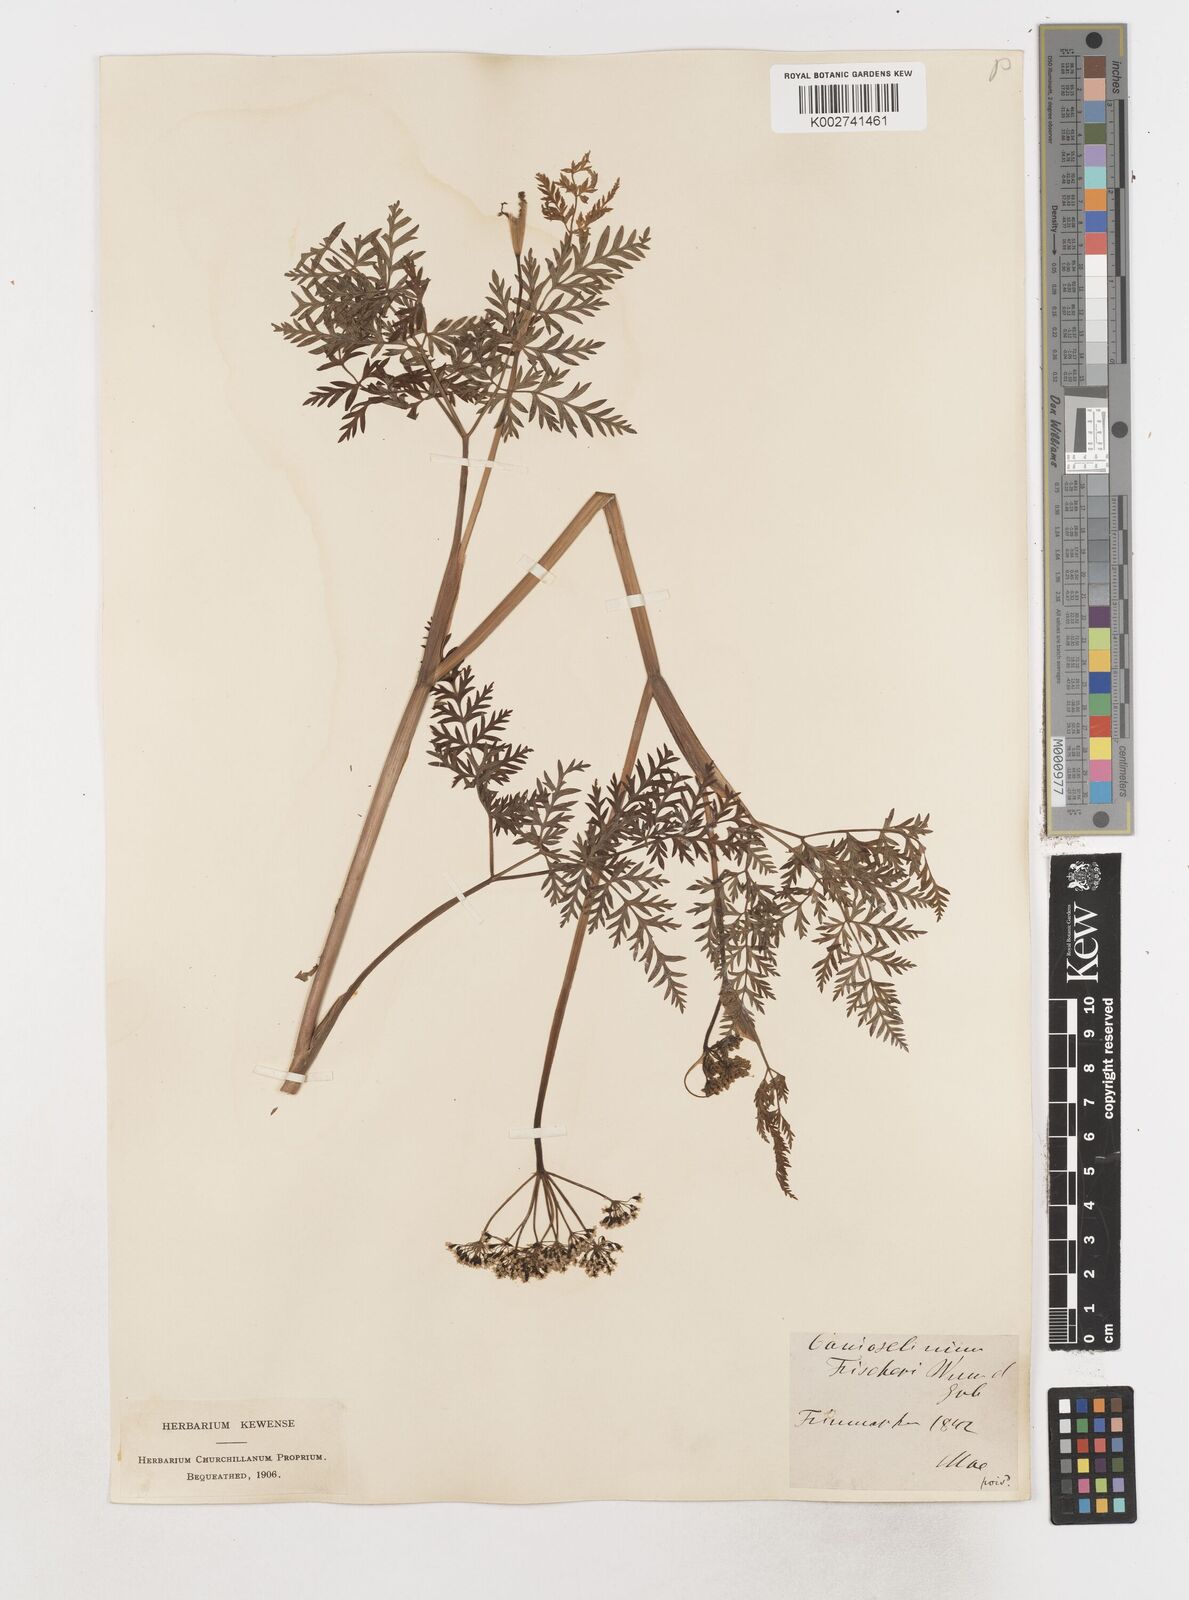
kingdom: Plantae
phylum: Tracheophyta
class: Magnoliopsida
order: Apiales
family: Apiaceae
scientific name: Apiaceae
